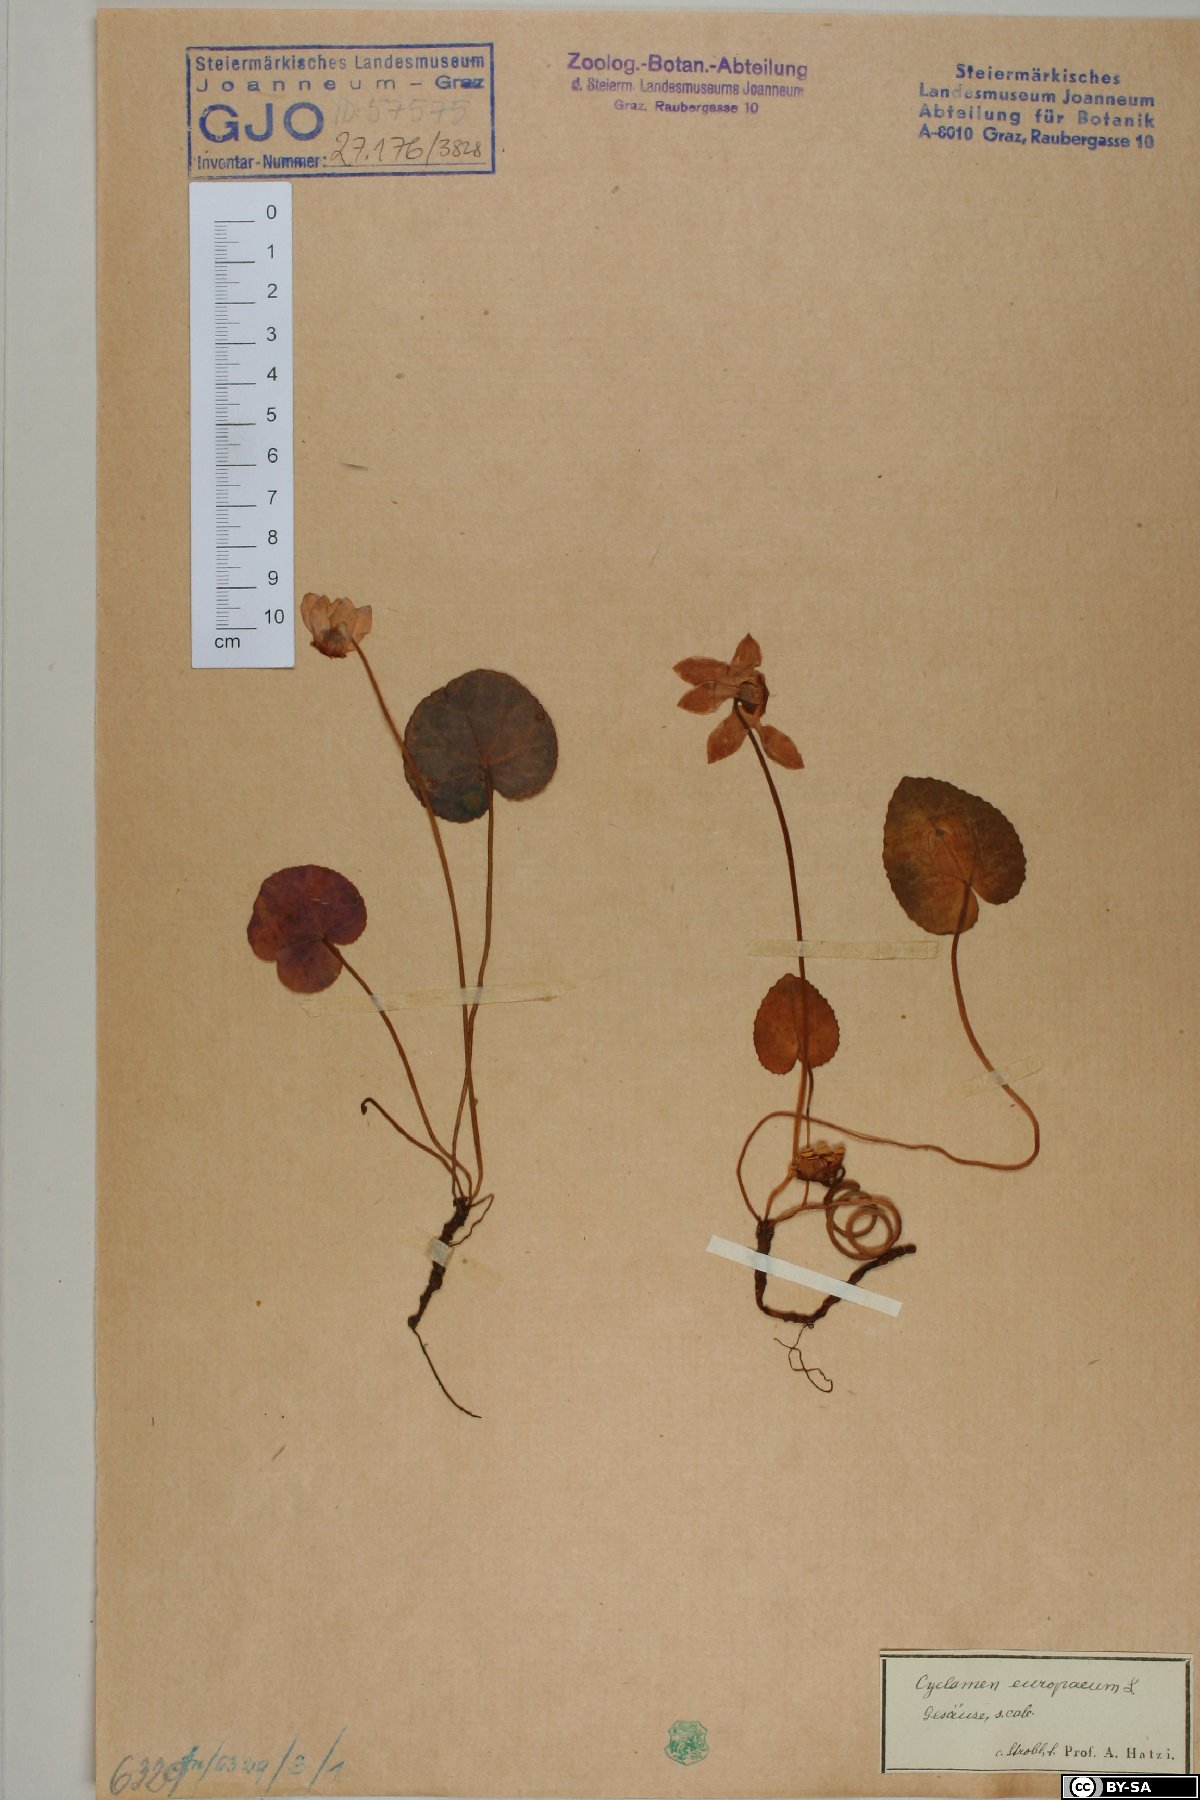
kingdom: Plantae
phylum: Tracheophyta
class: Magnoliopsida
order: Ericales
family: Primulaceae
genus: Cyclamen
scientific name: Cyclamen purpurascens
